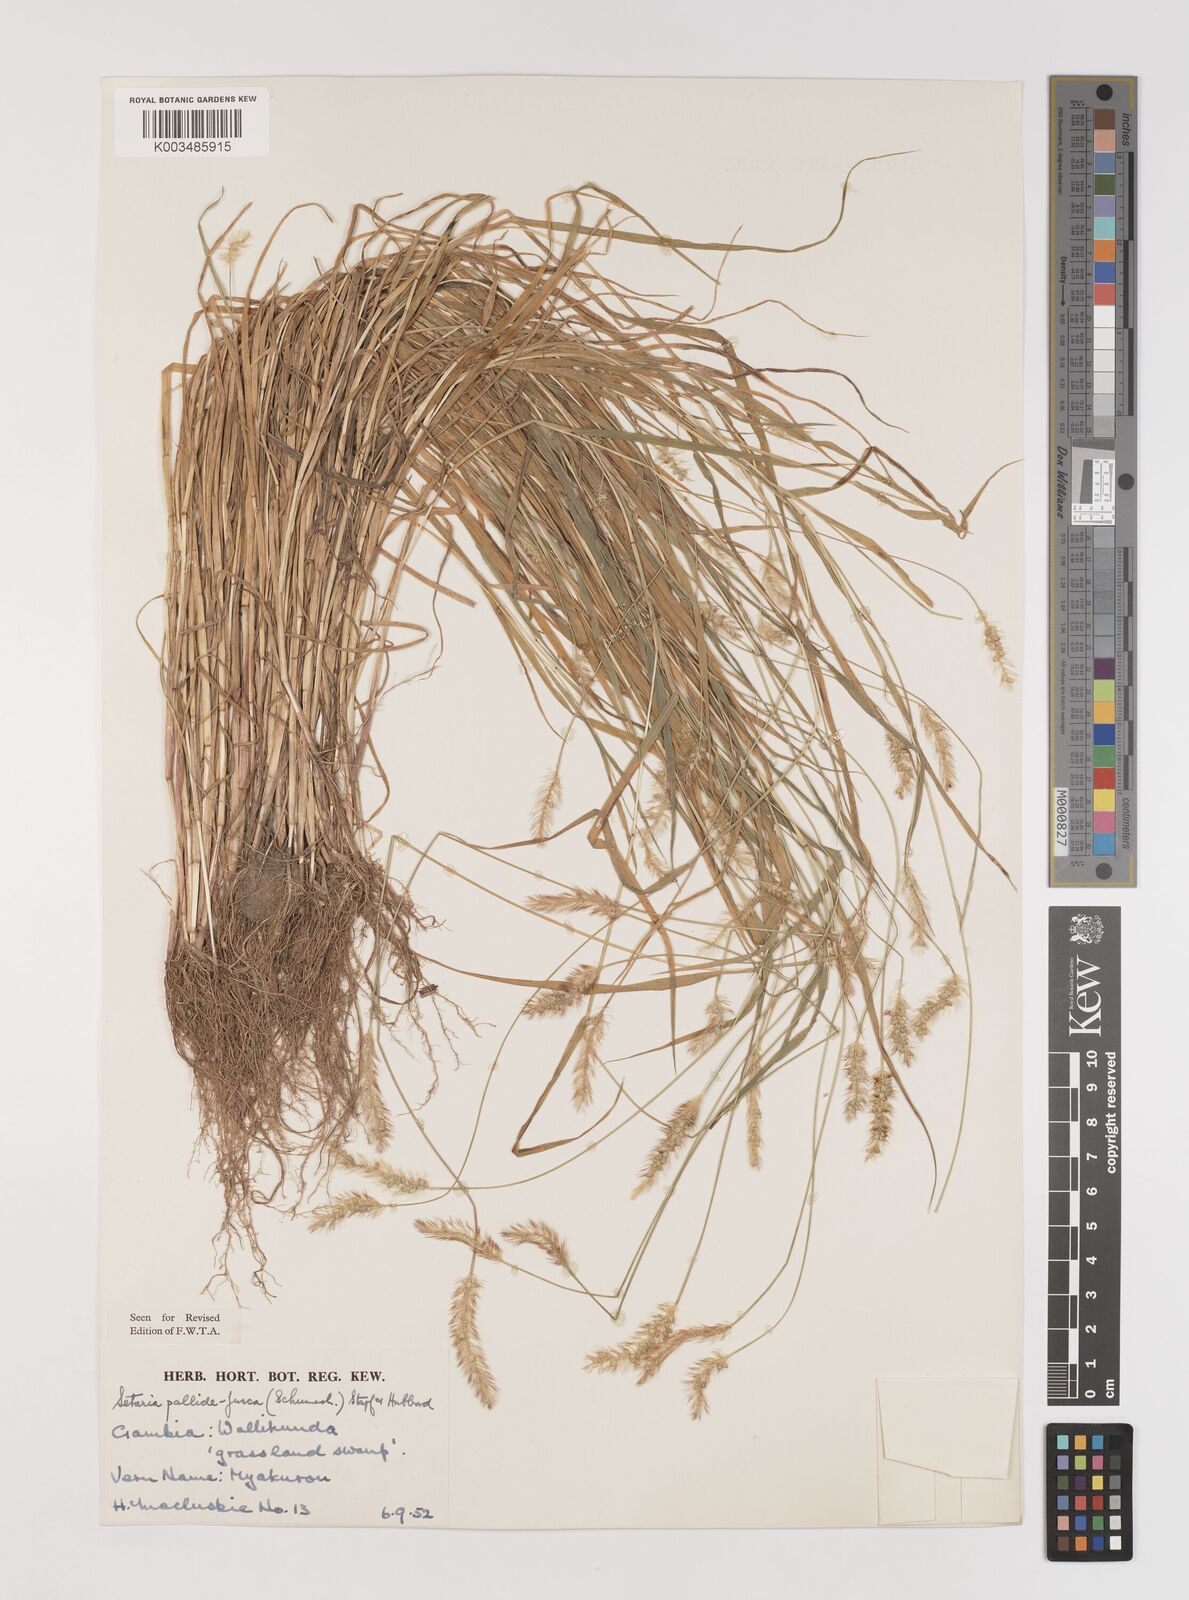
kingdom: Plantae
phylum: Tracheophyta
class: Liliopsida
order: Poales
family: Poaceae
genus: Setaria
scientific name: Setaria pumila
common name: Yellow bristle-grass
